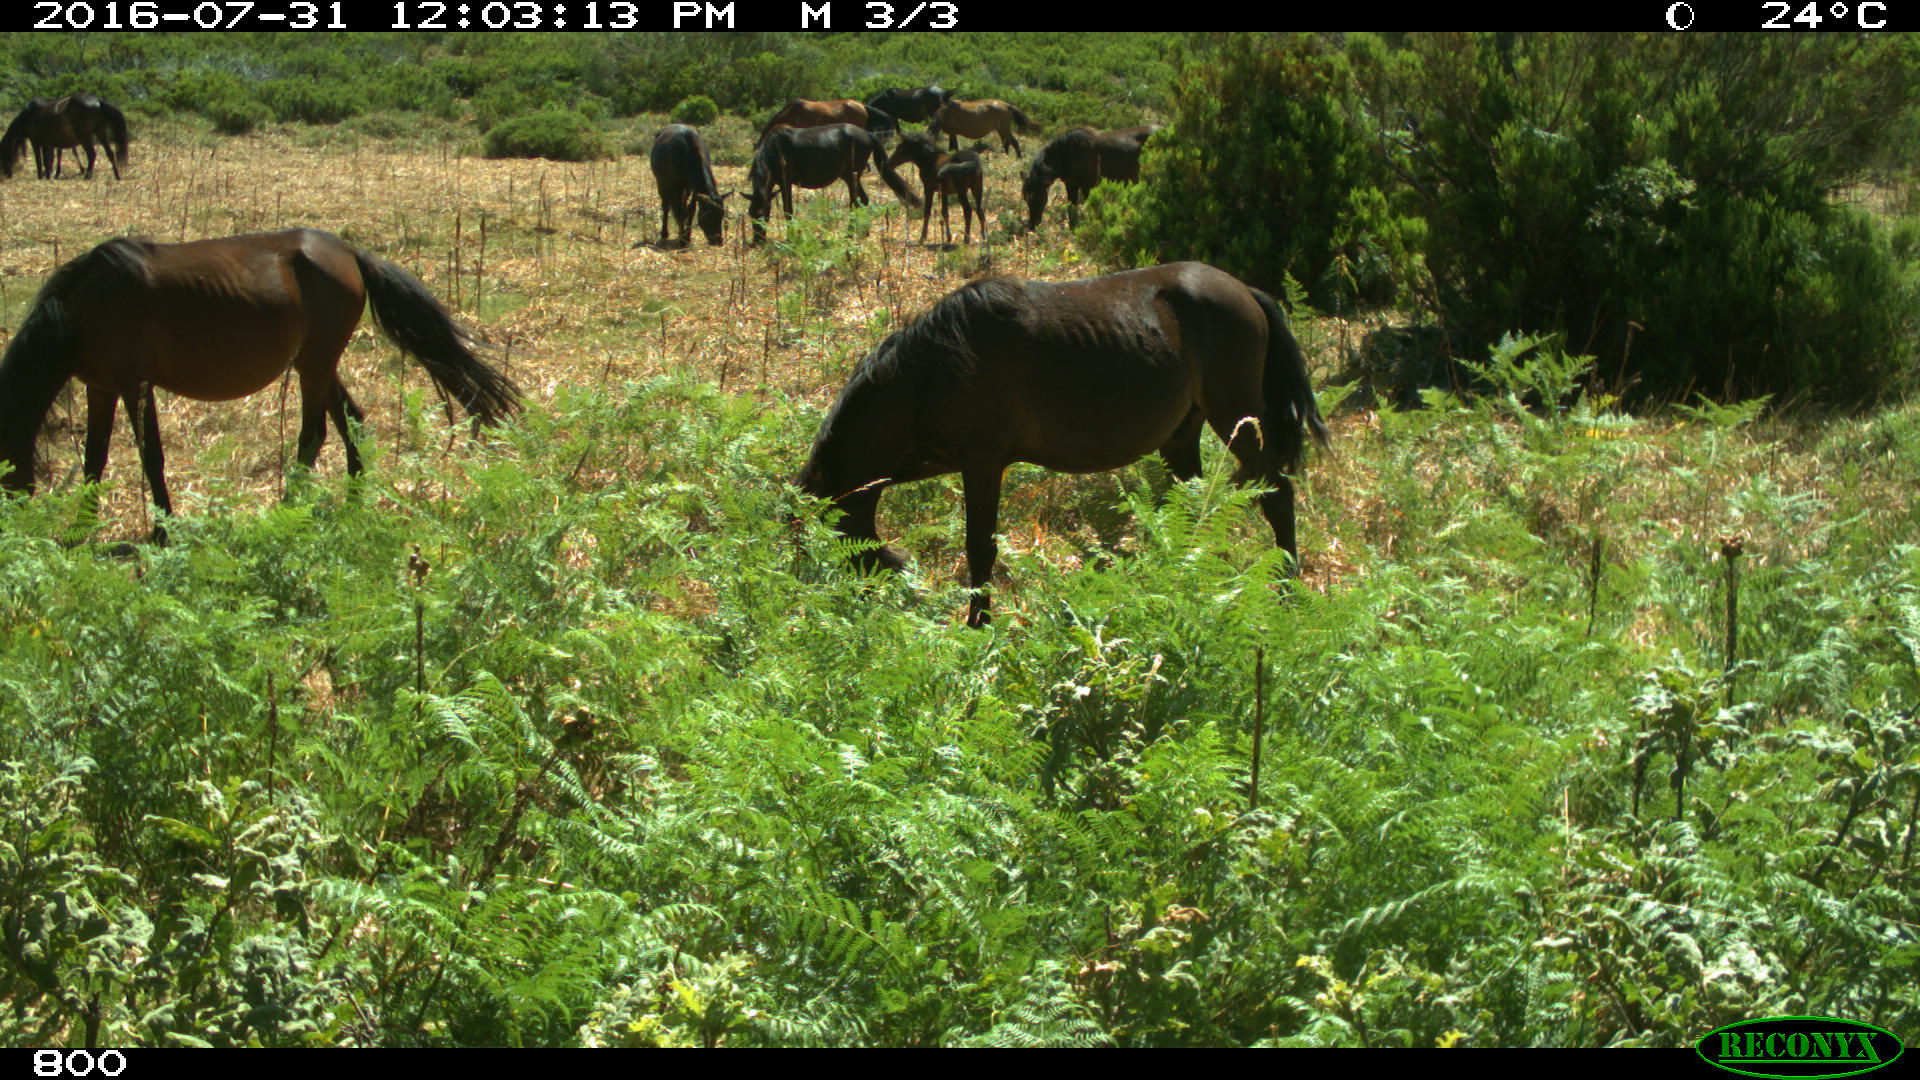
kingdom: Animalia
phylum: Chordata
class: Mammalia
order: Perissodactyla
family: Equidae
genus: Equus
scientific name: Equus caballus
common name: Horse
